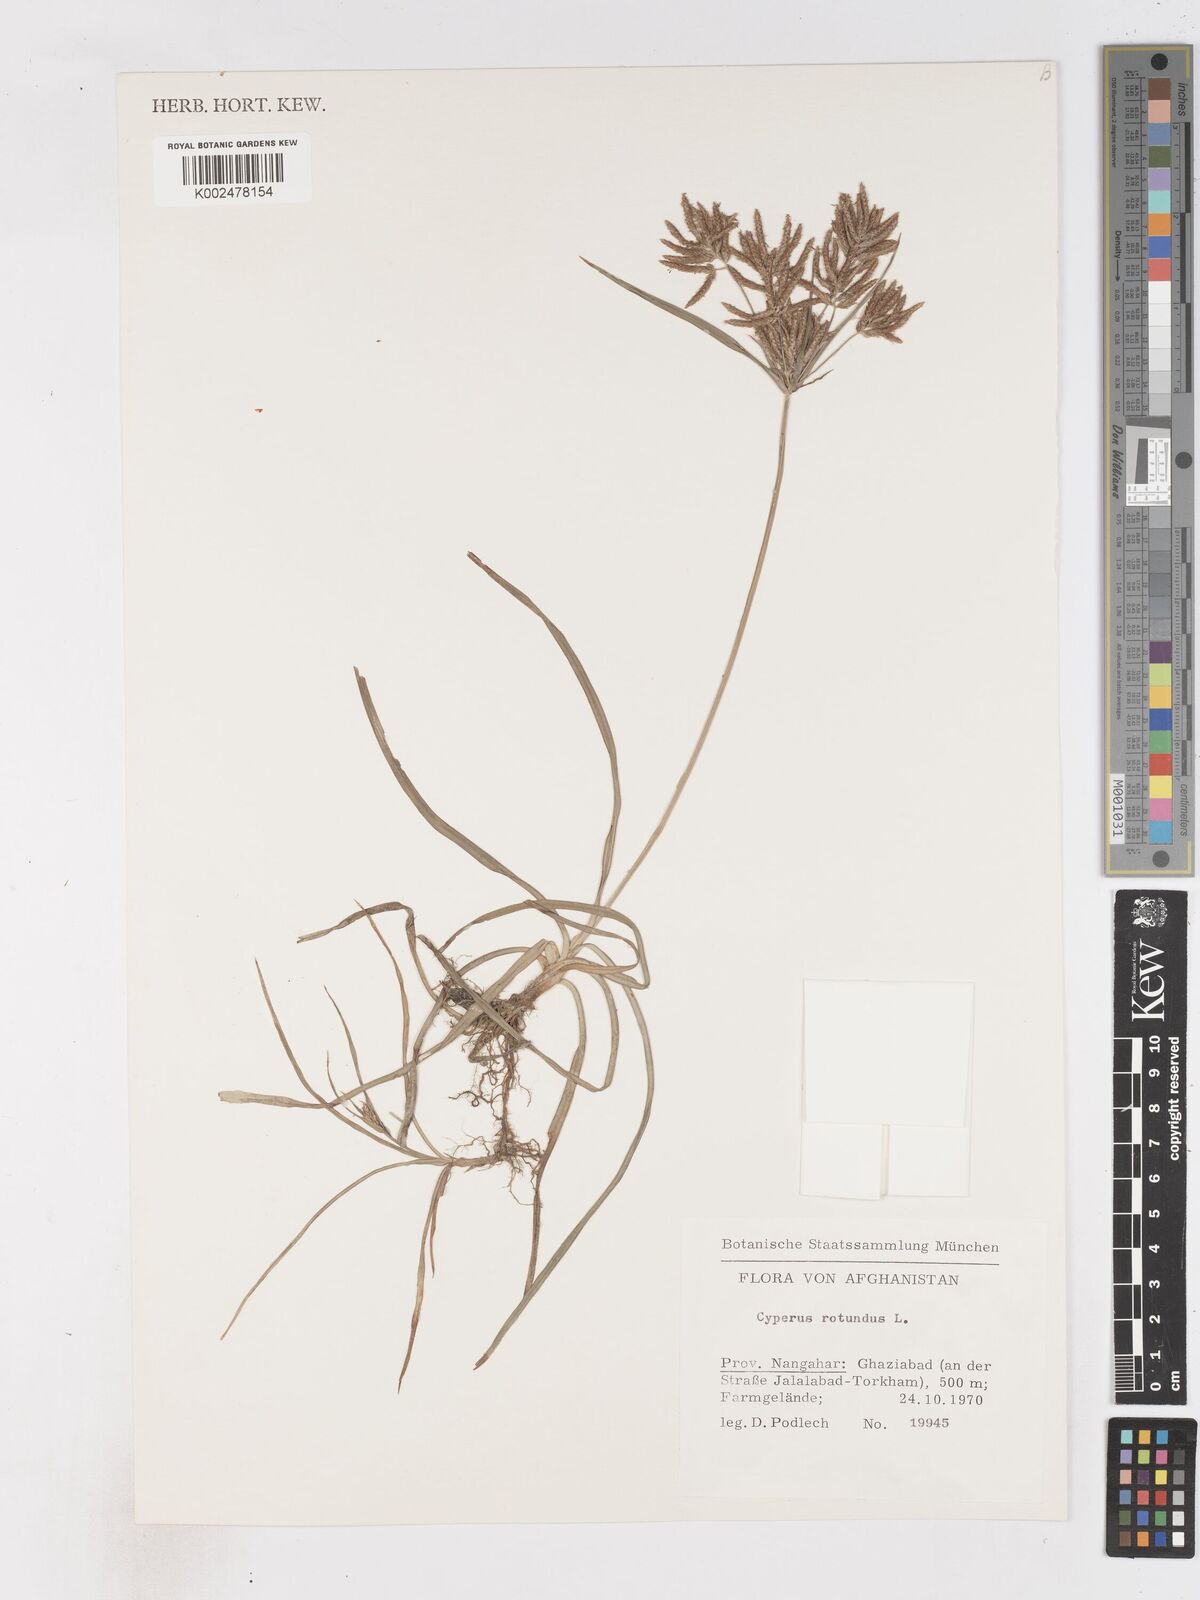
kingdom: Plantae
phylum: Tracheophyta
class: Liliopsida
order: Poales
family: Cyperaceae
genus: Cyperus
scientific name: Cyperus rotundus
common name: Nutgrass
